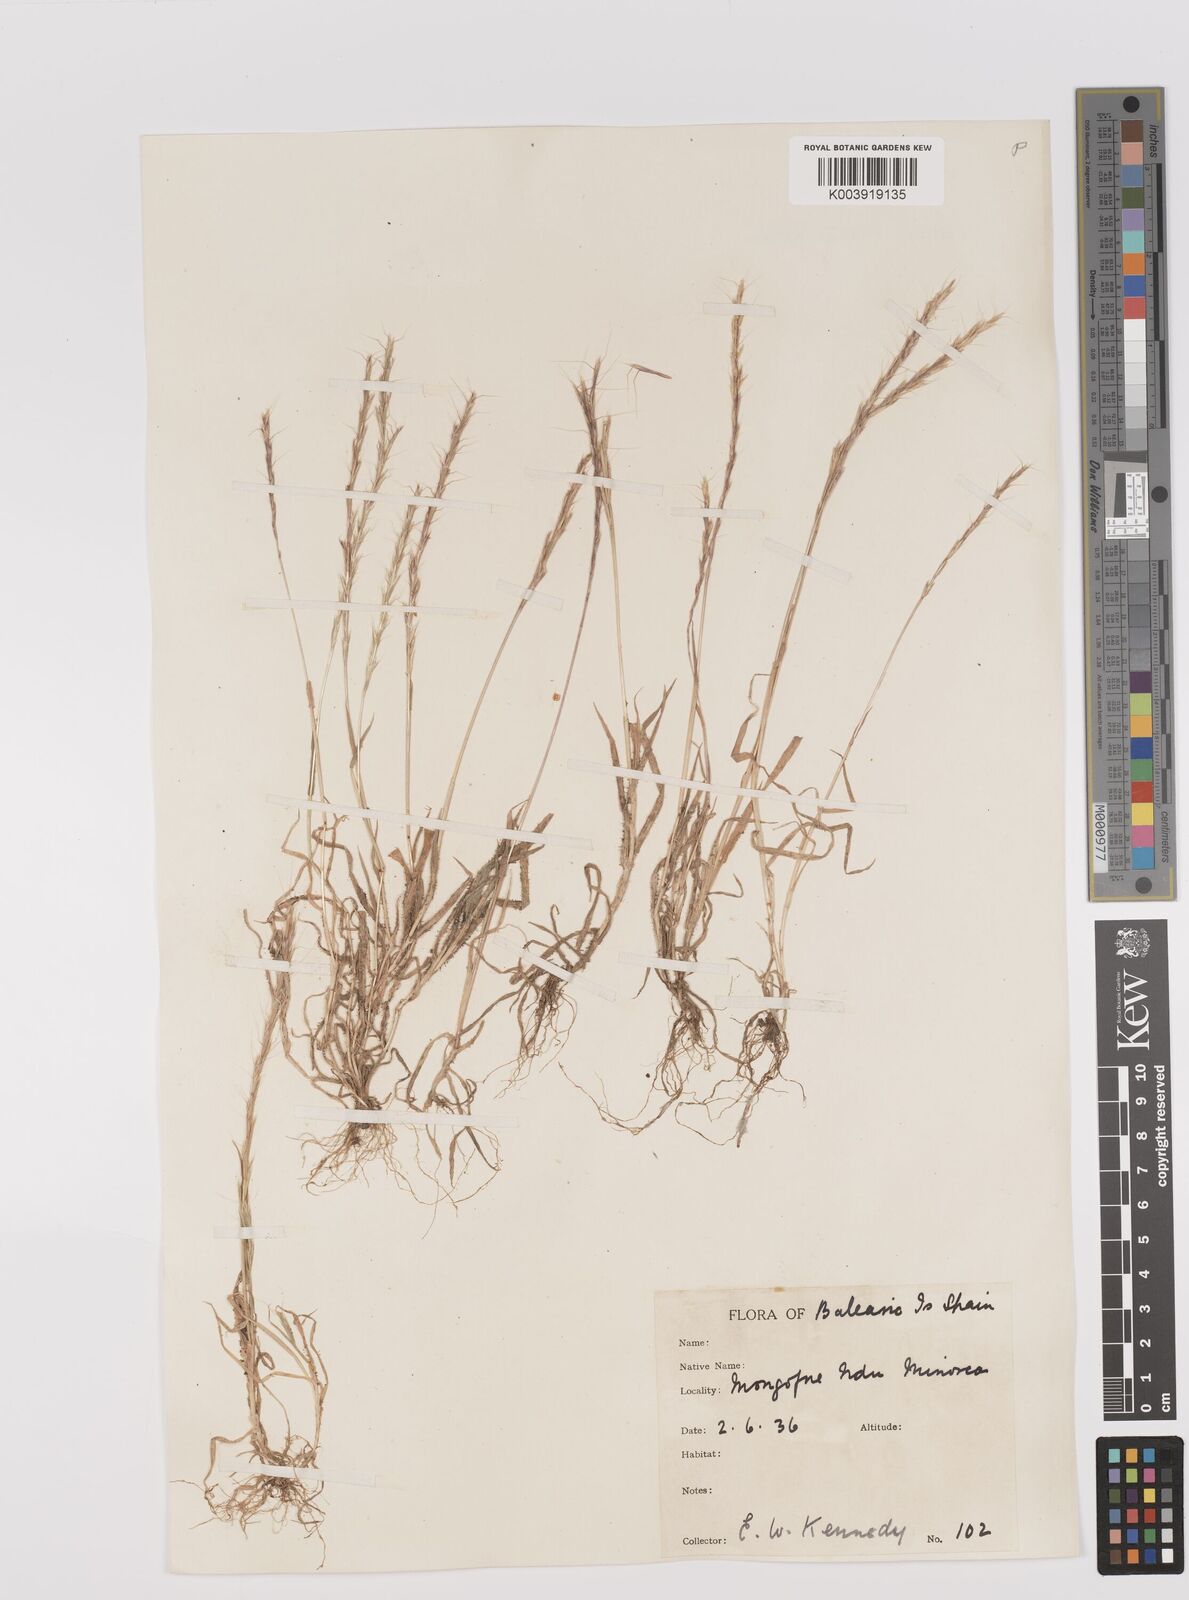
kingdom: Plantae
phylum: Tracheophyta
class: Liliopsida
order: Poales
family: Poaceae
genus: Gaudinia
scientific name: Gaudinia fragilis
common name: French oat-grass
